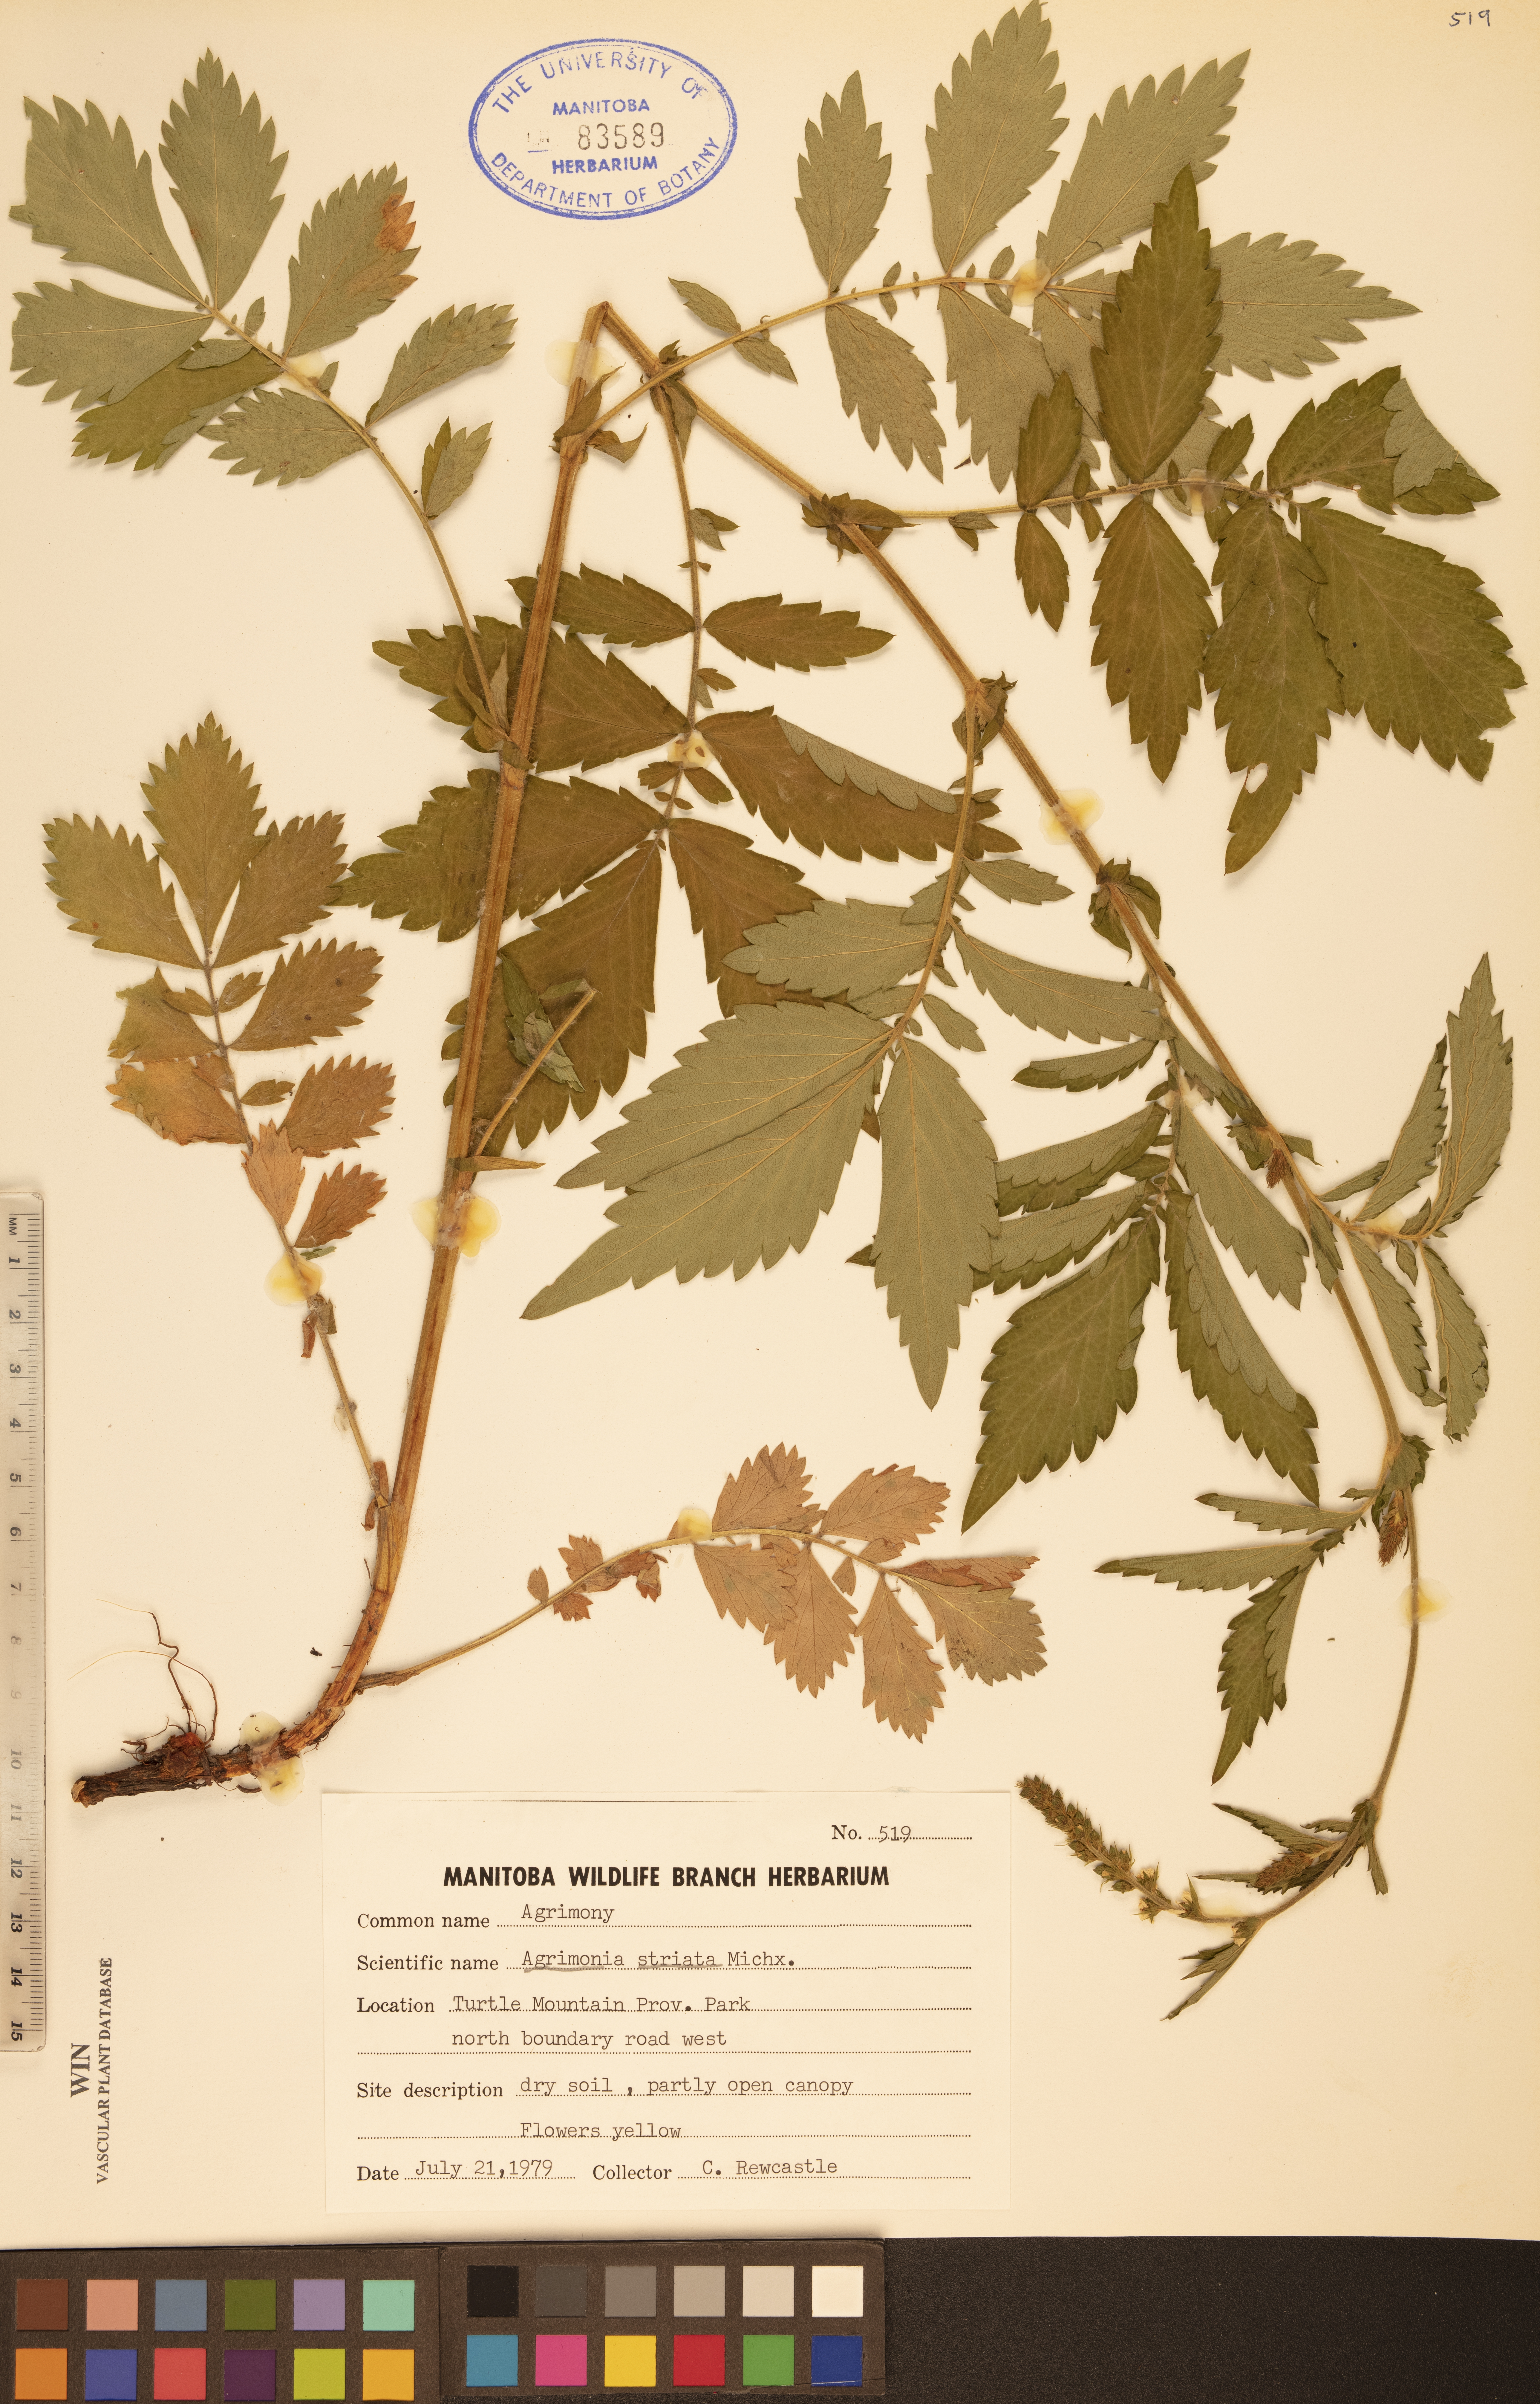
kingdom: Plantae
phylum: Tracheophyta
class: Magnoliopsida
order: Rosales
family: Rosaceae
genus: Agrimonia
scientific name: Agrimonia striata
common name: Britton's agrimony
